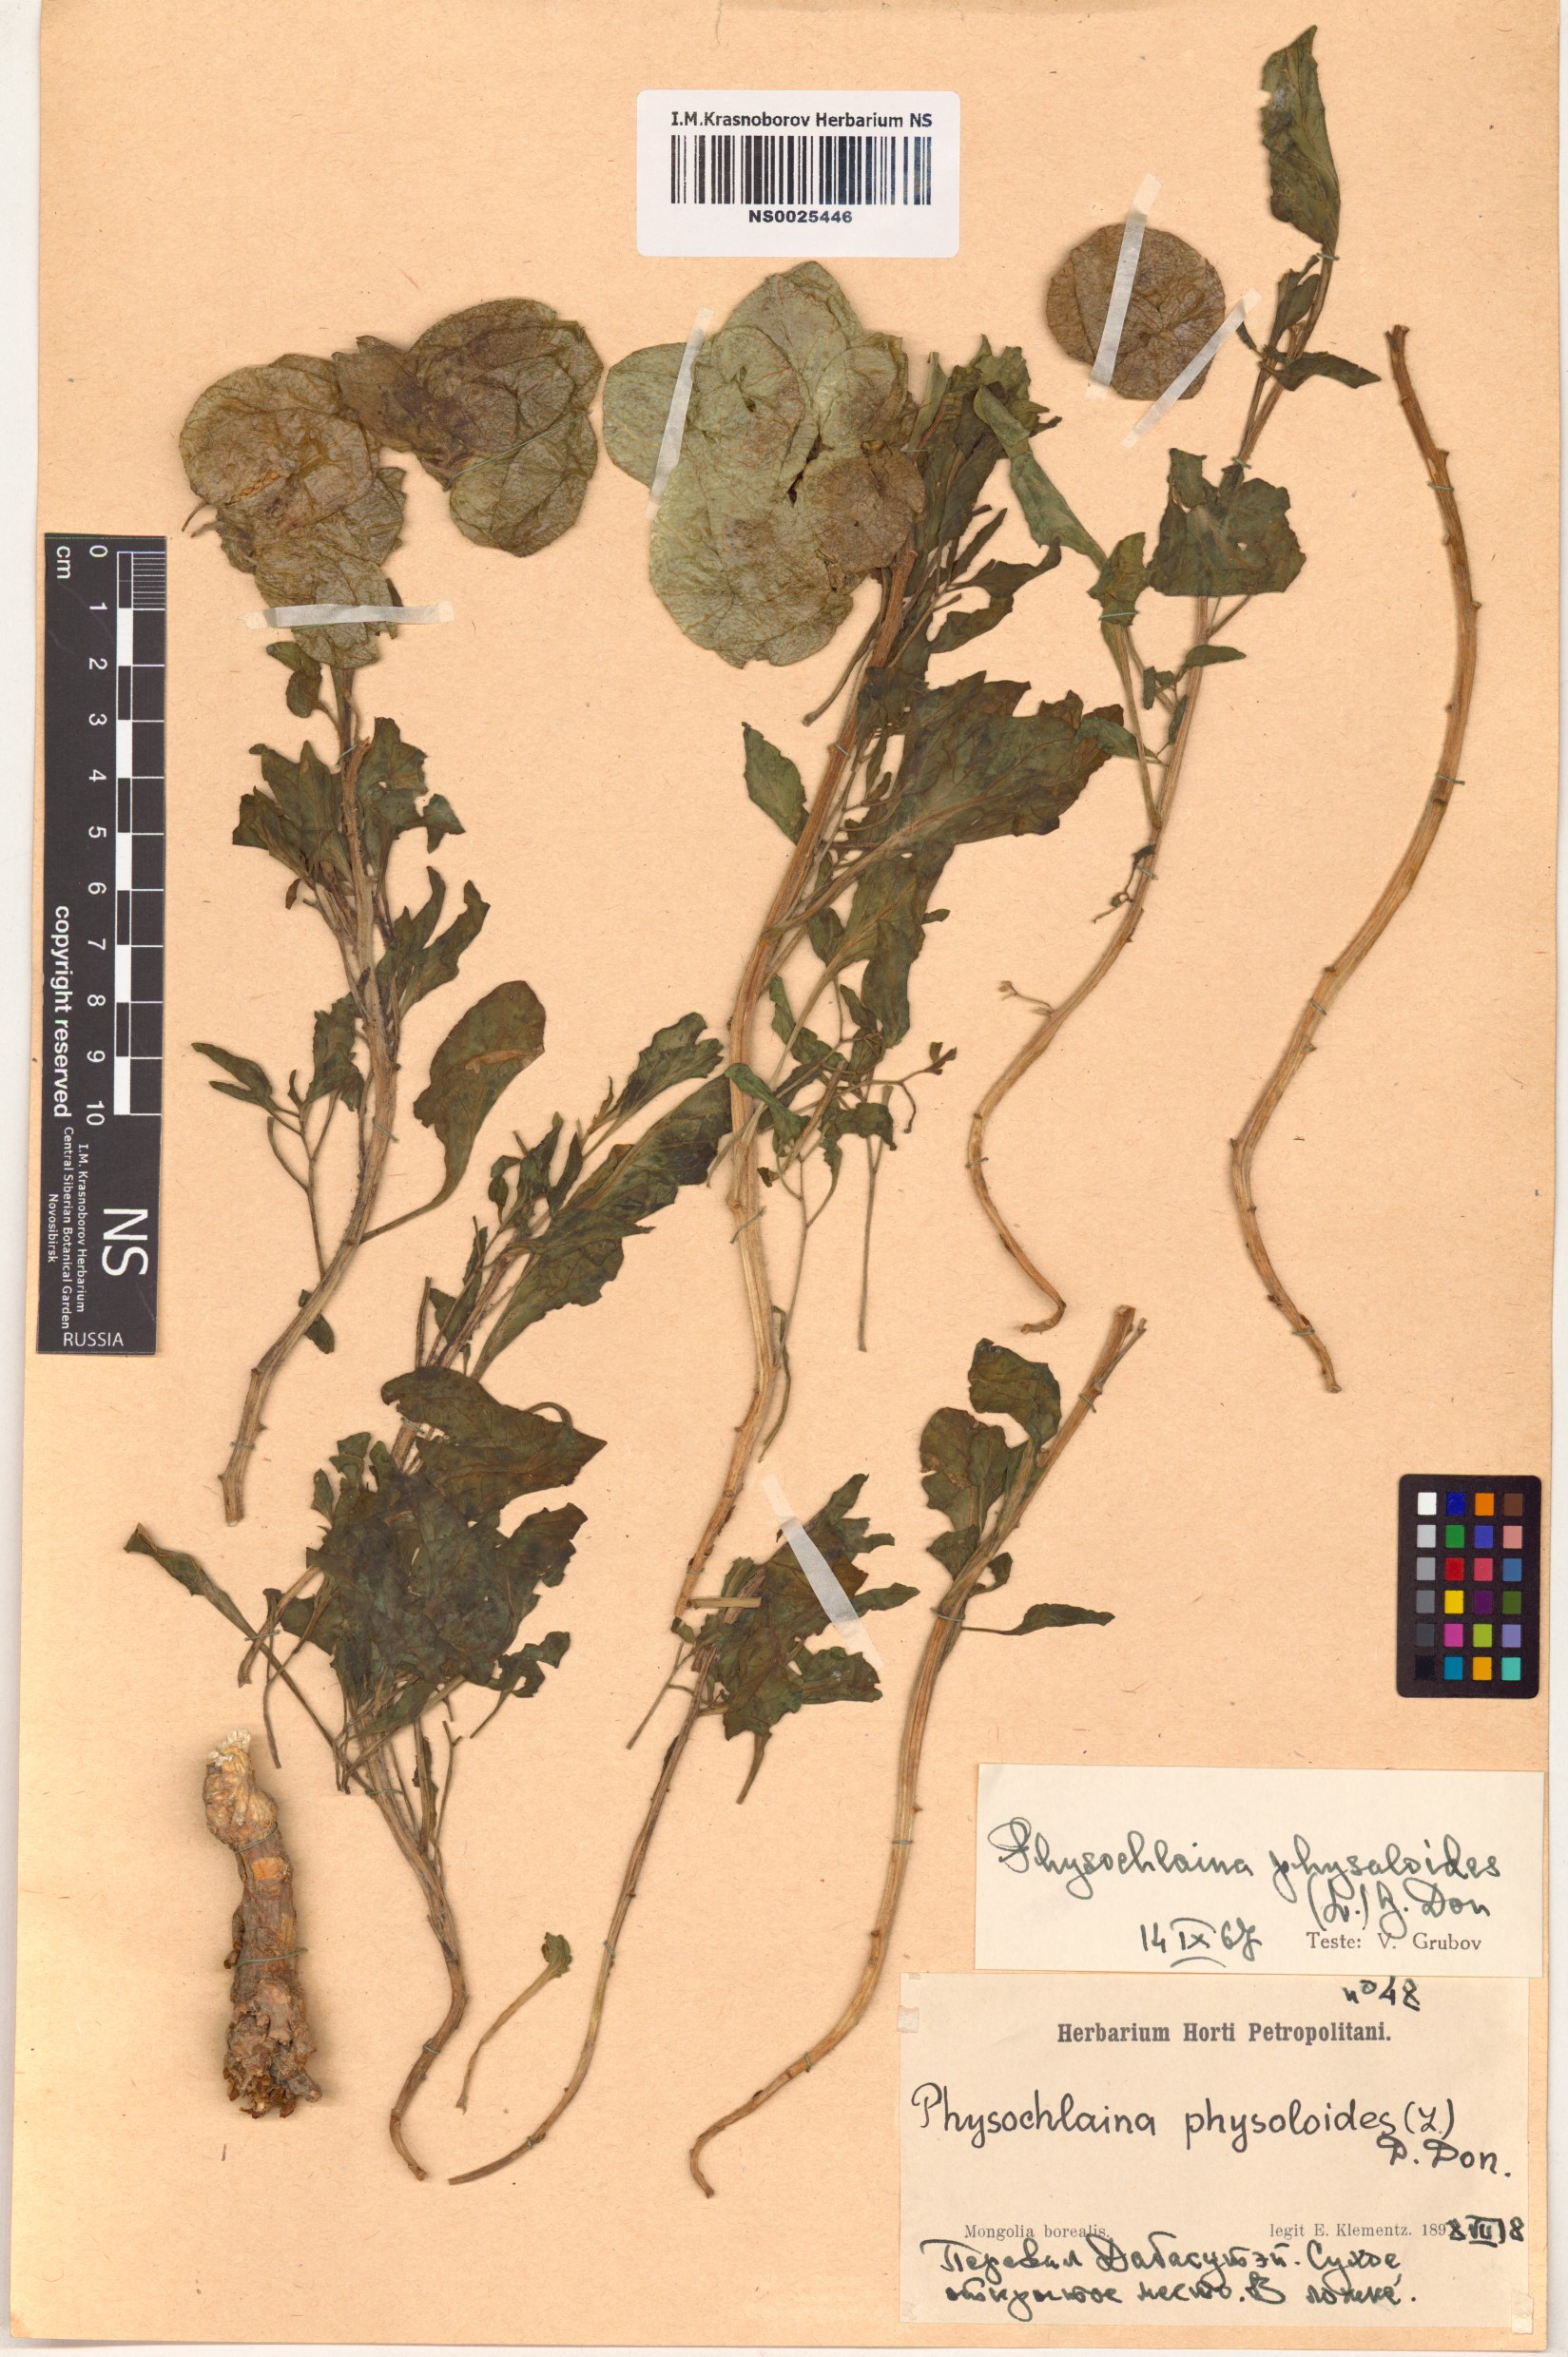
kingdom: Plantae
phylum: Tracheophyta
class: Magnoliopsida
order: Solanales
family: Solanaceae
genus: Physochlaina
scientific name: Physochlaina physaloides
